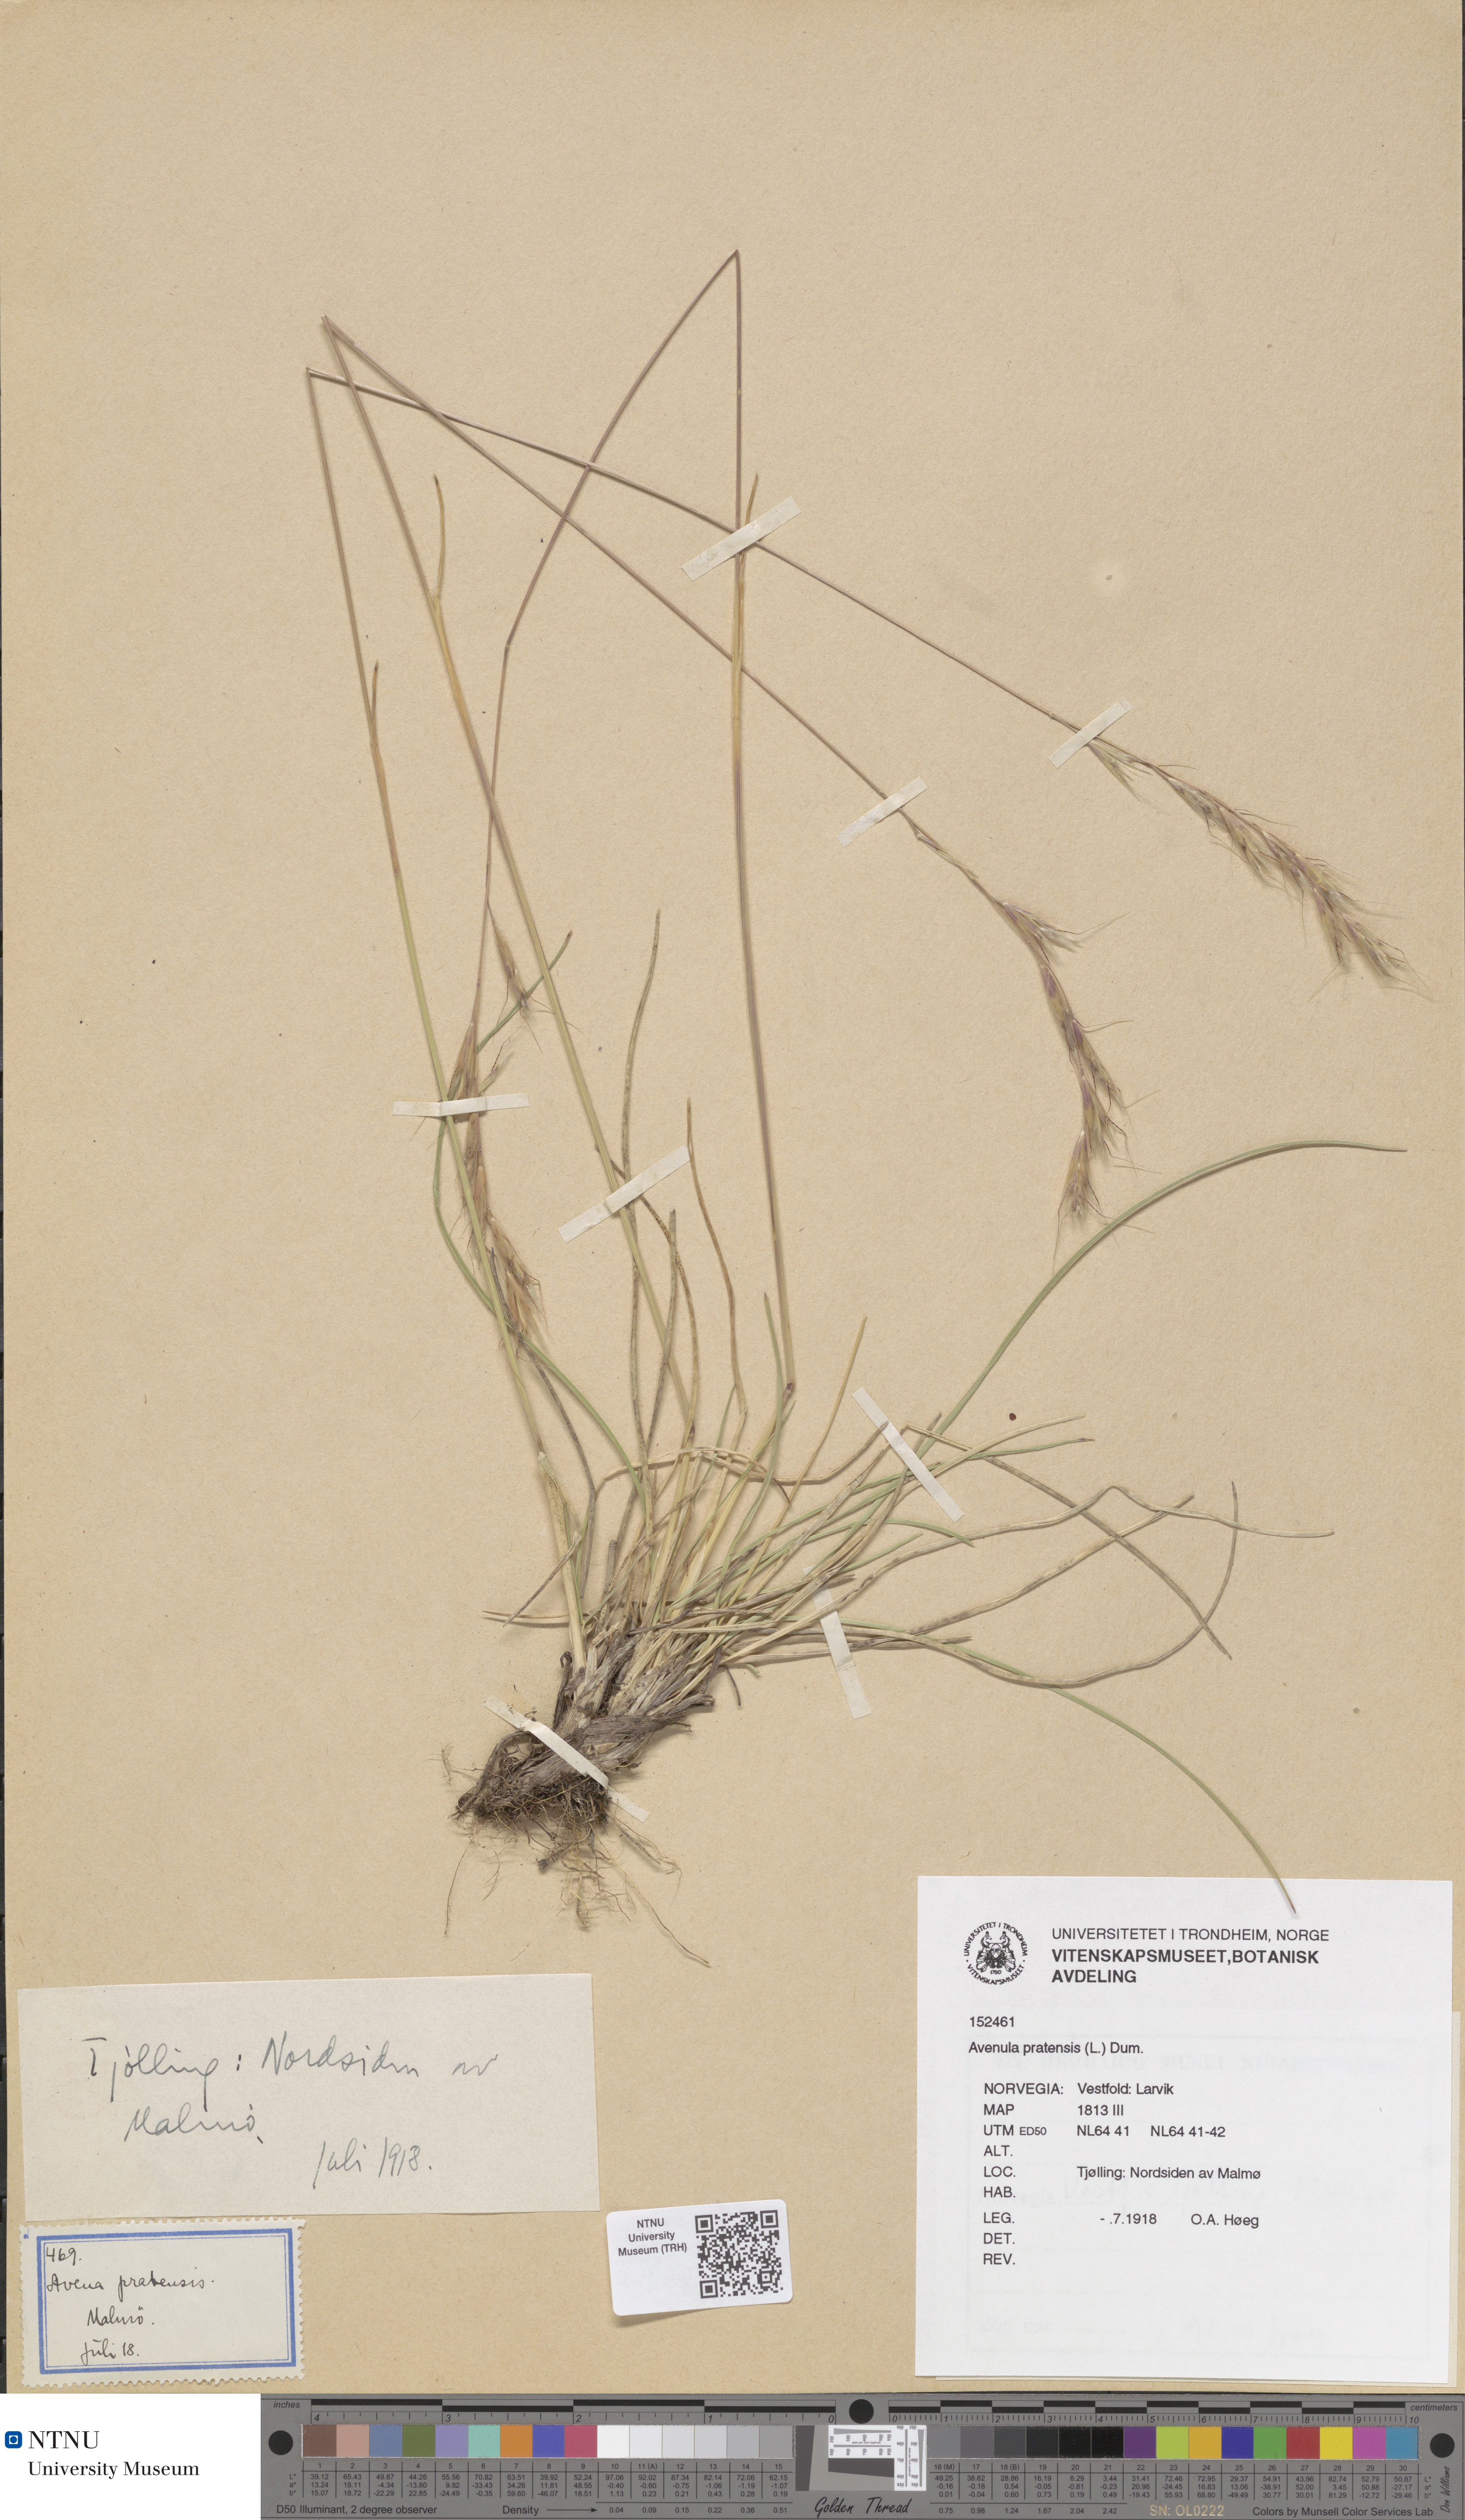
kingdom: Plantae
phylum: Tracheophyta
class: Liliopsida
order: Poales
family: Poaceae
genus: Helictochloa
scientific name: Helictochloa pratensis
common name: Meadow oat grass
